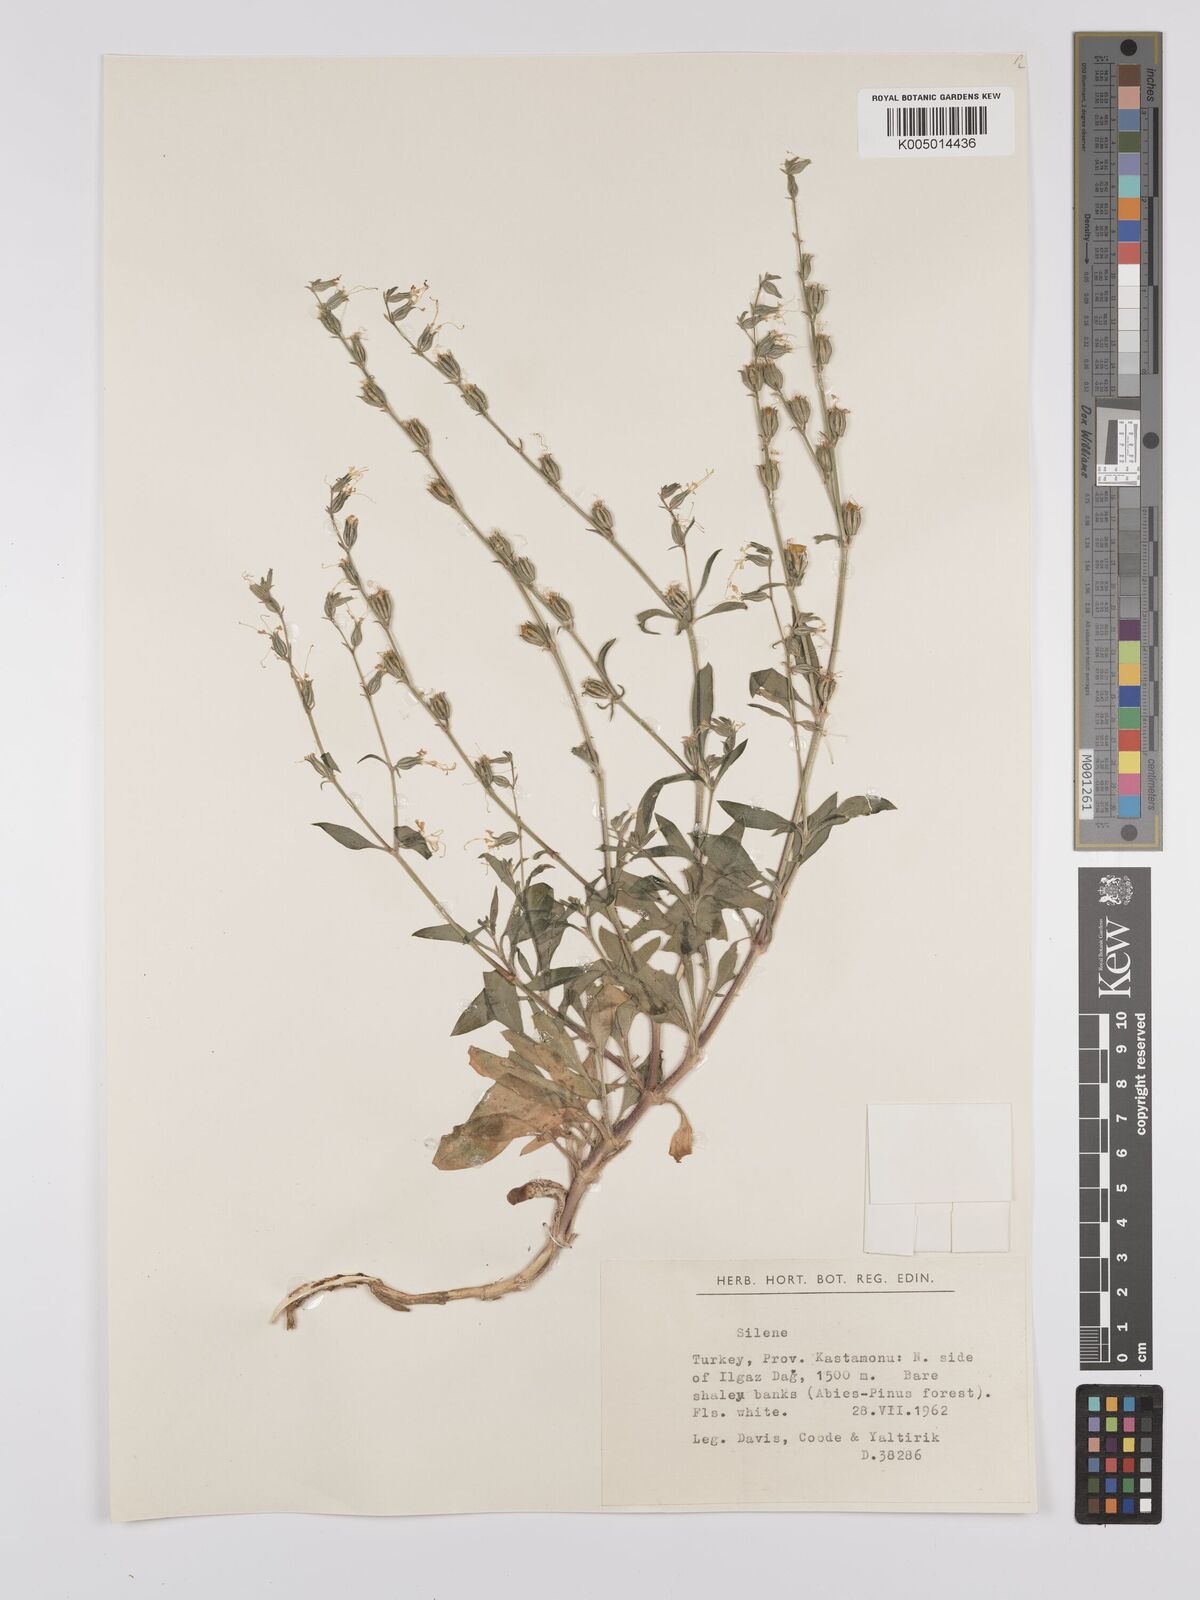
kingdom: Plantae
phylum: Tracheophyta
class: Magnoliopsida
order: Caryophyllales
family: Caryophyllaceae
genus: Silene
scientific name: Silene
